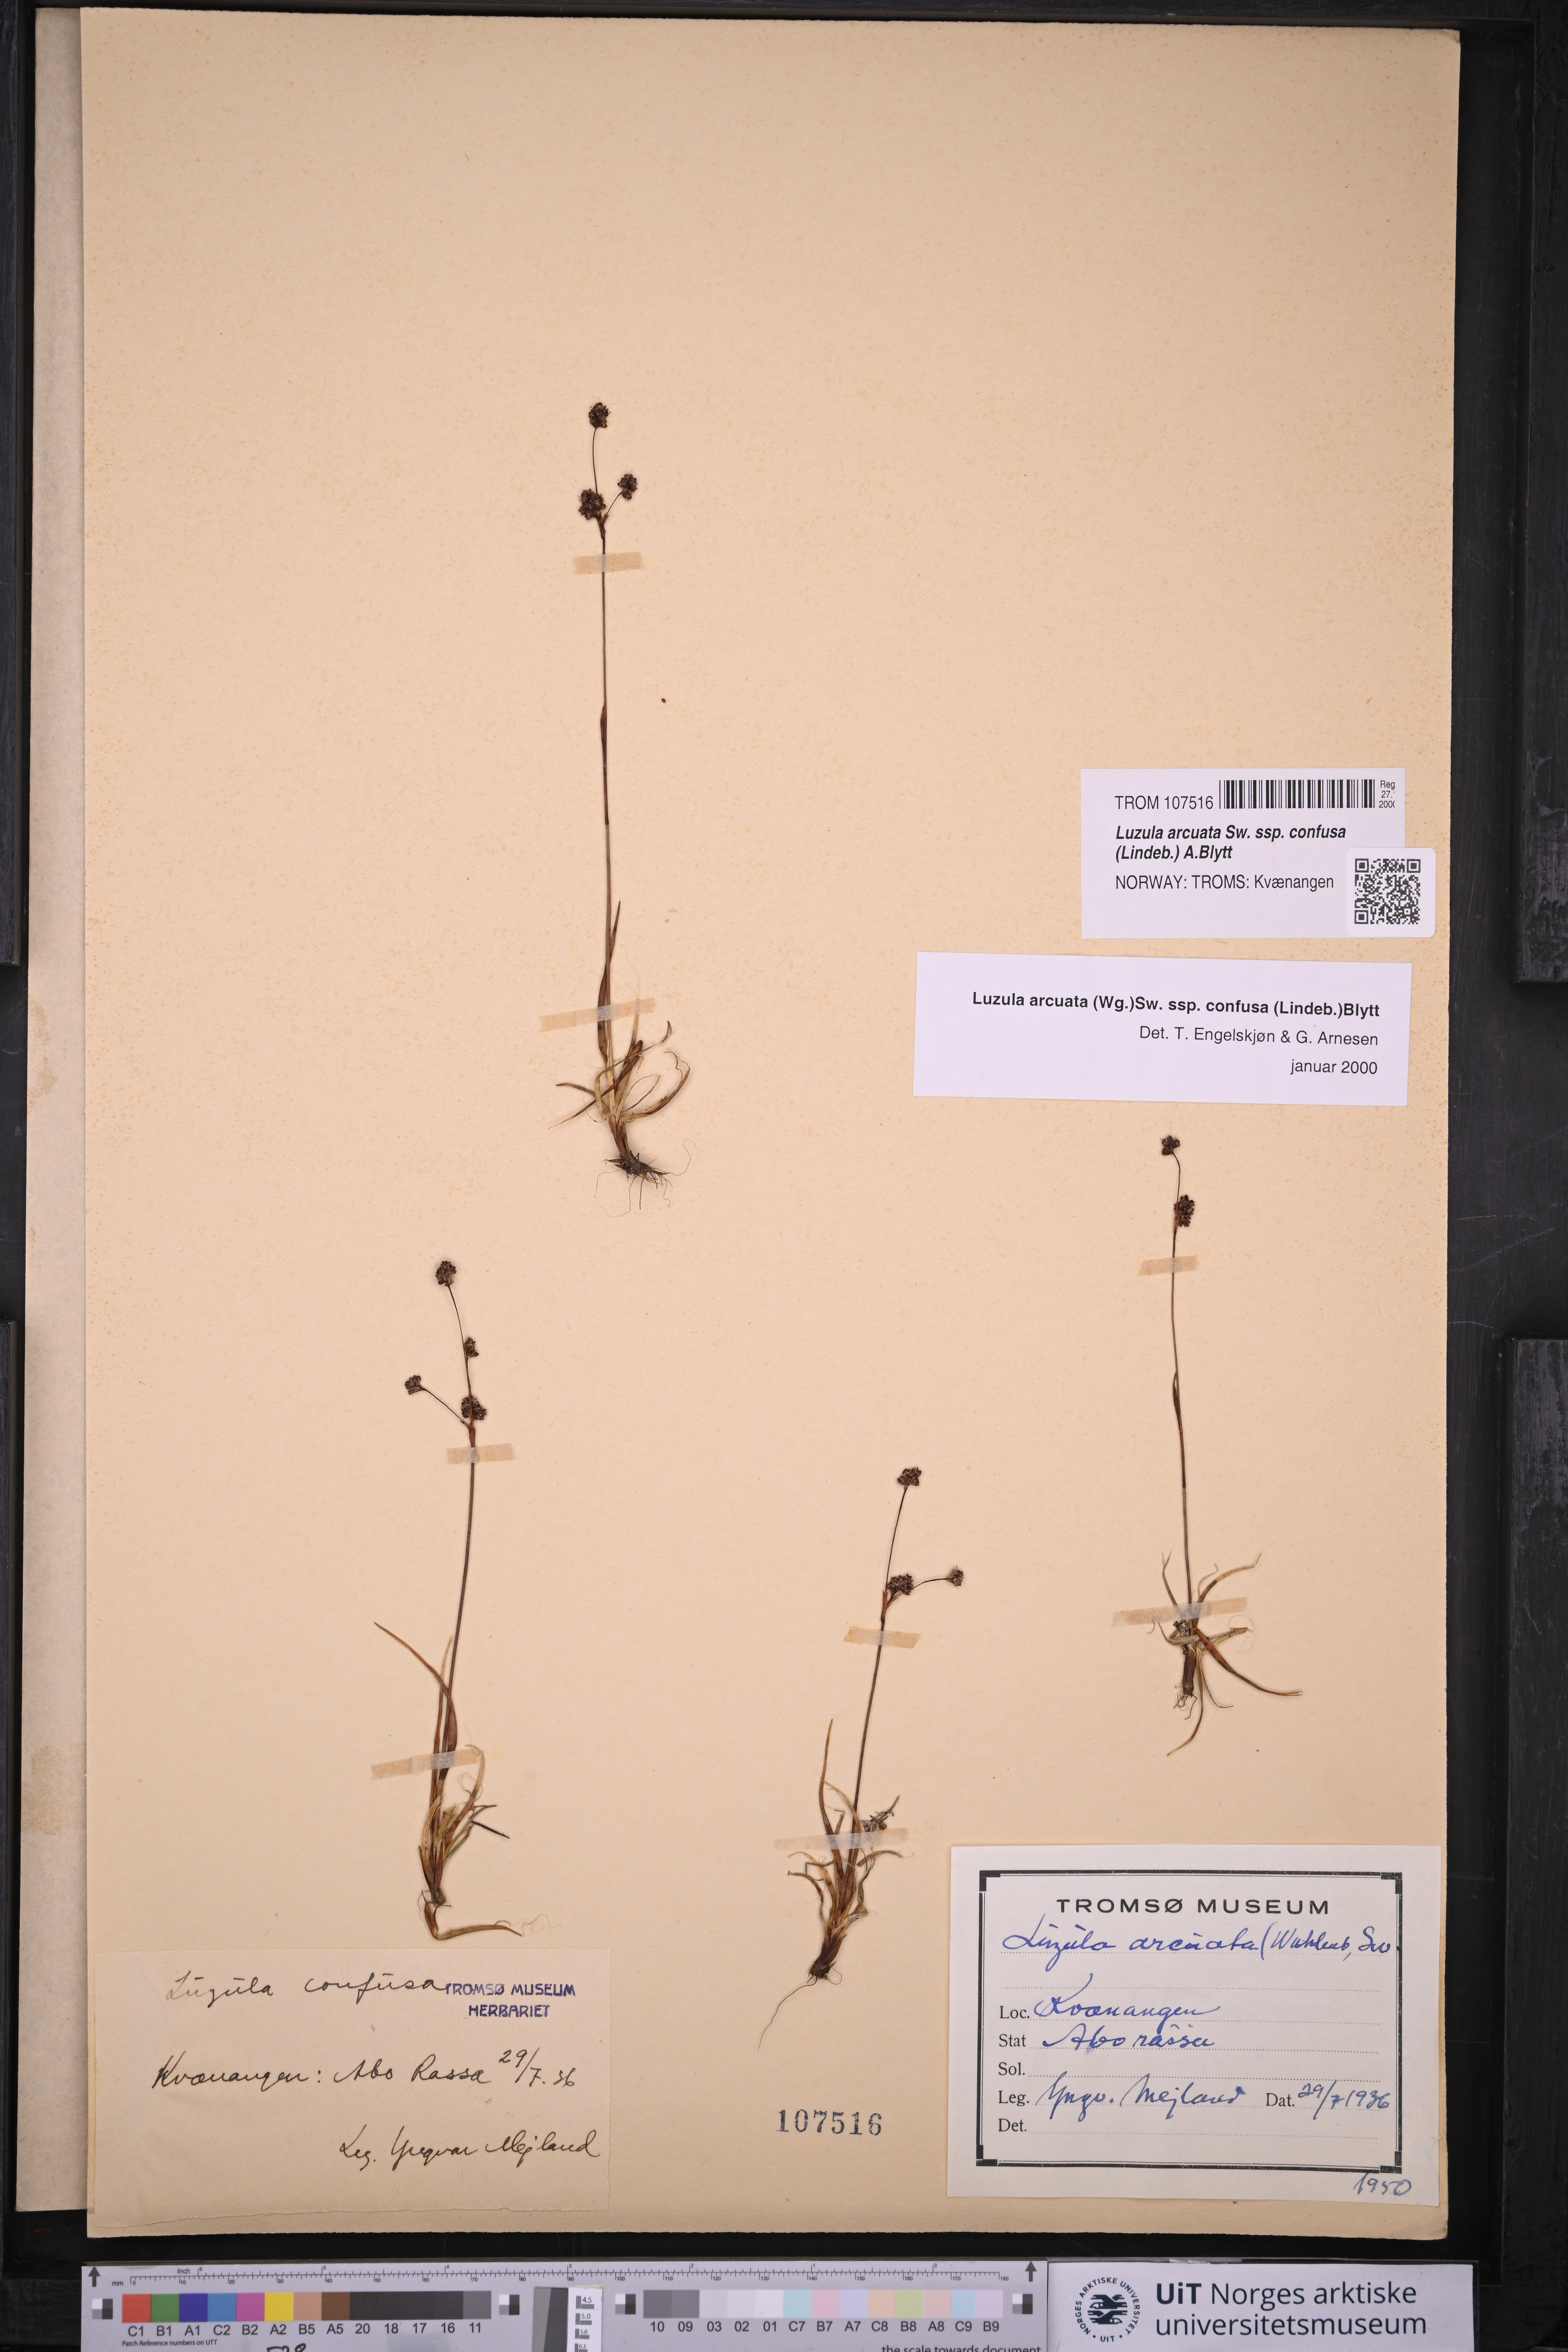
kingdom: Plantae
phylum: Tracheophyta
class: Liliopsida
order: Poales
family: Juncaceae
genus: Luzula
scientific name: Luzula confusa
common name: Northern wood rush
